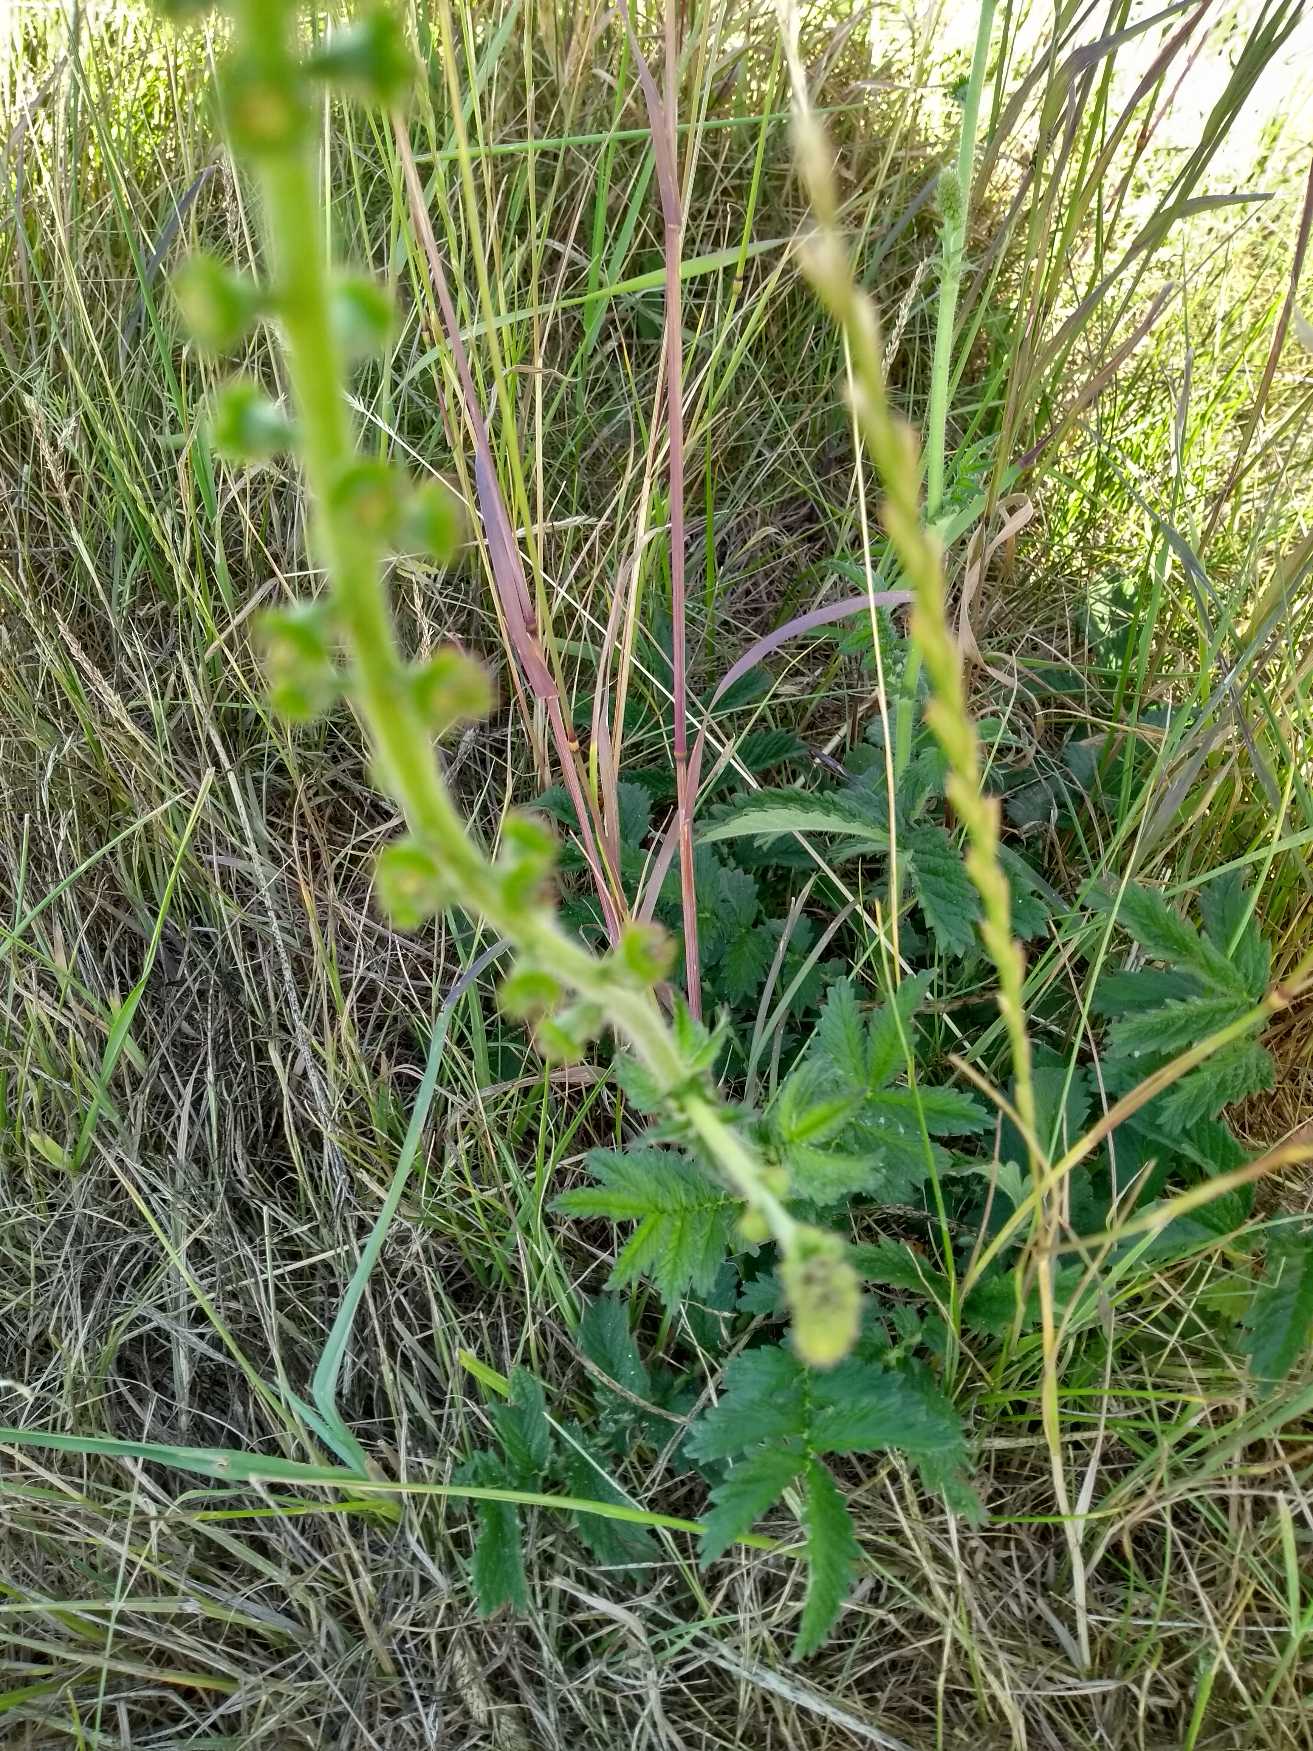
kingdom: Plantae
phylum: Tracheophyta
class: Magnoliopsida
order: Rosales
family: Rosaceae
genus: Agrimonia
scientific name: Agrimonia
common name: Agermåneslægten
